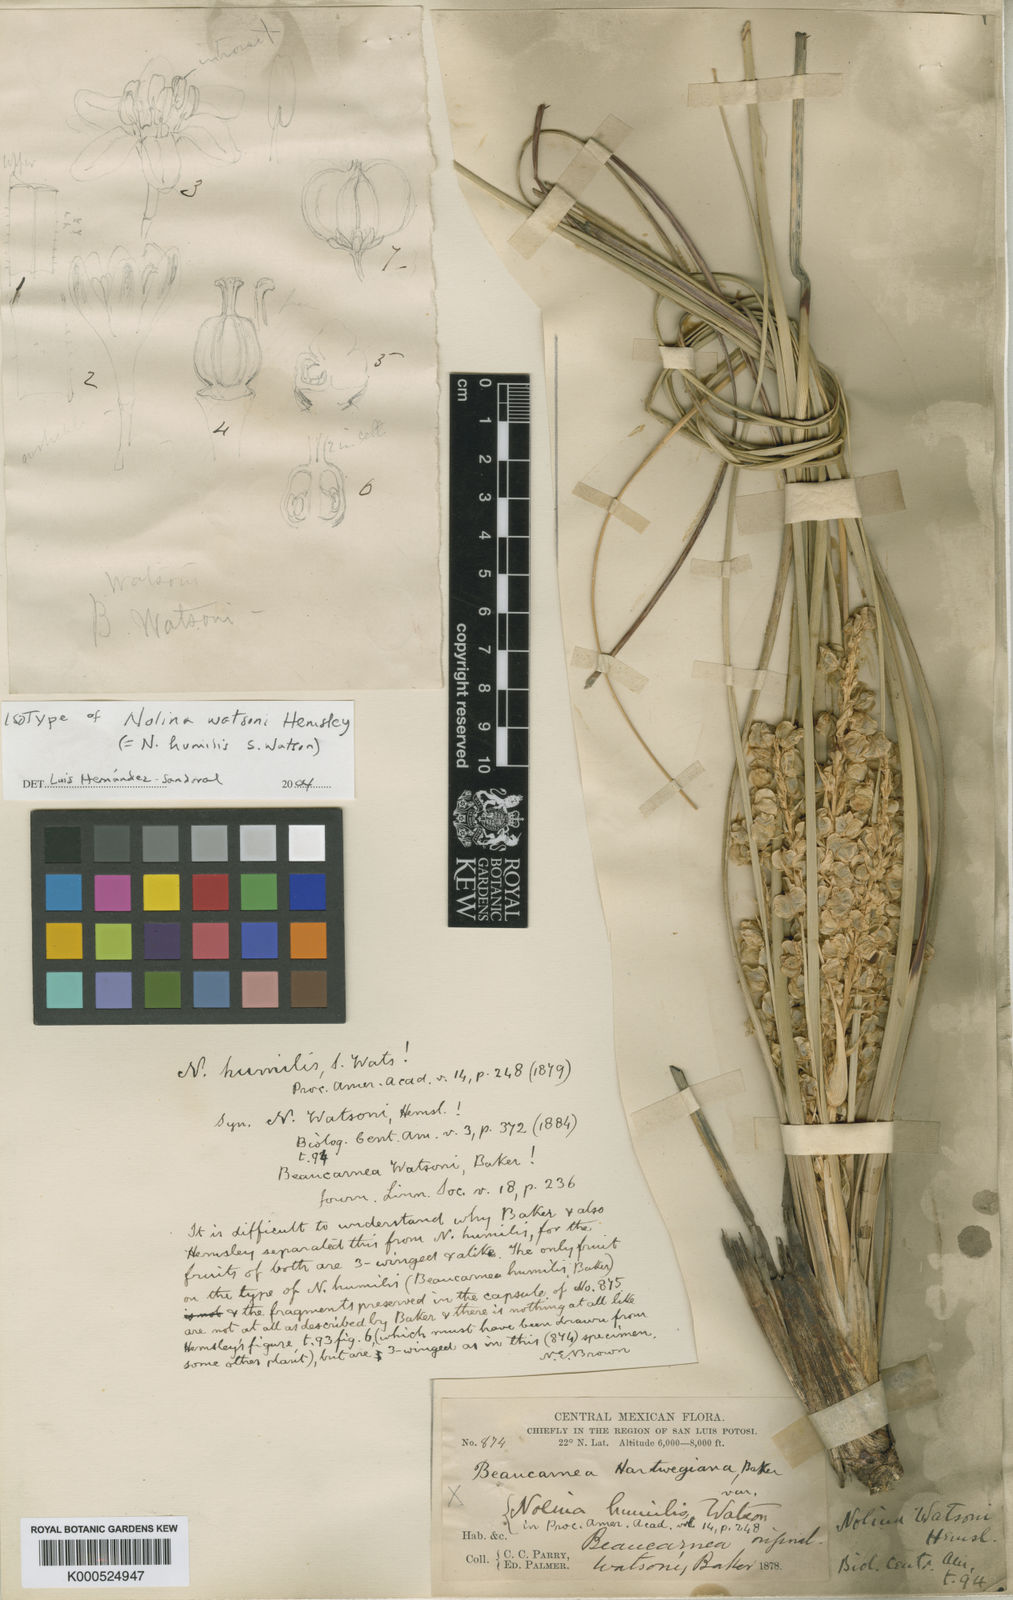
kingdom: Plantae
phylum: Tracheophyta
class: Liliopsida
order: Asparagales
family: Asparagaceae
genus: Nolina
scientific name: Nolina humilis
